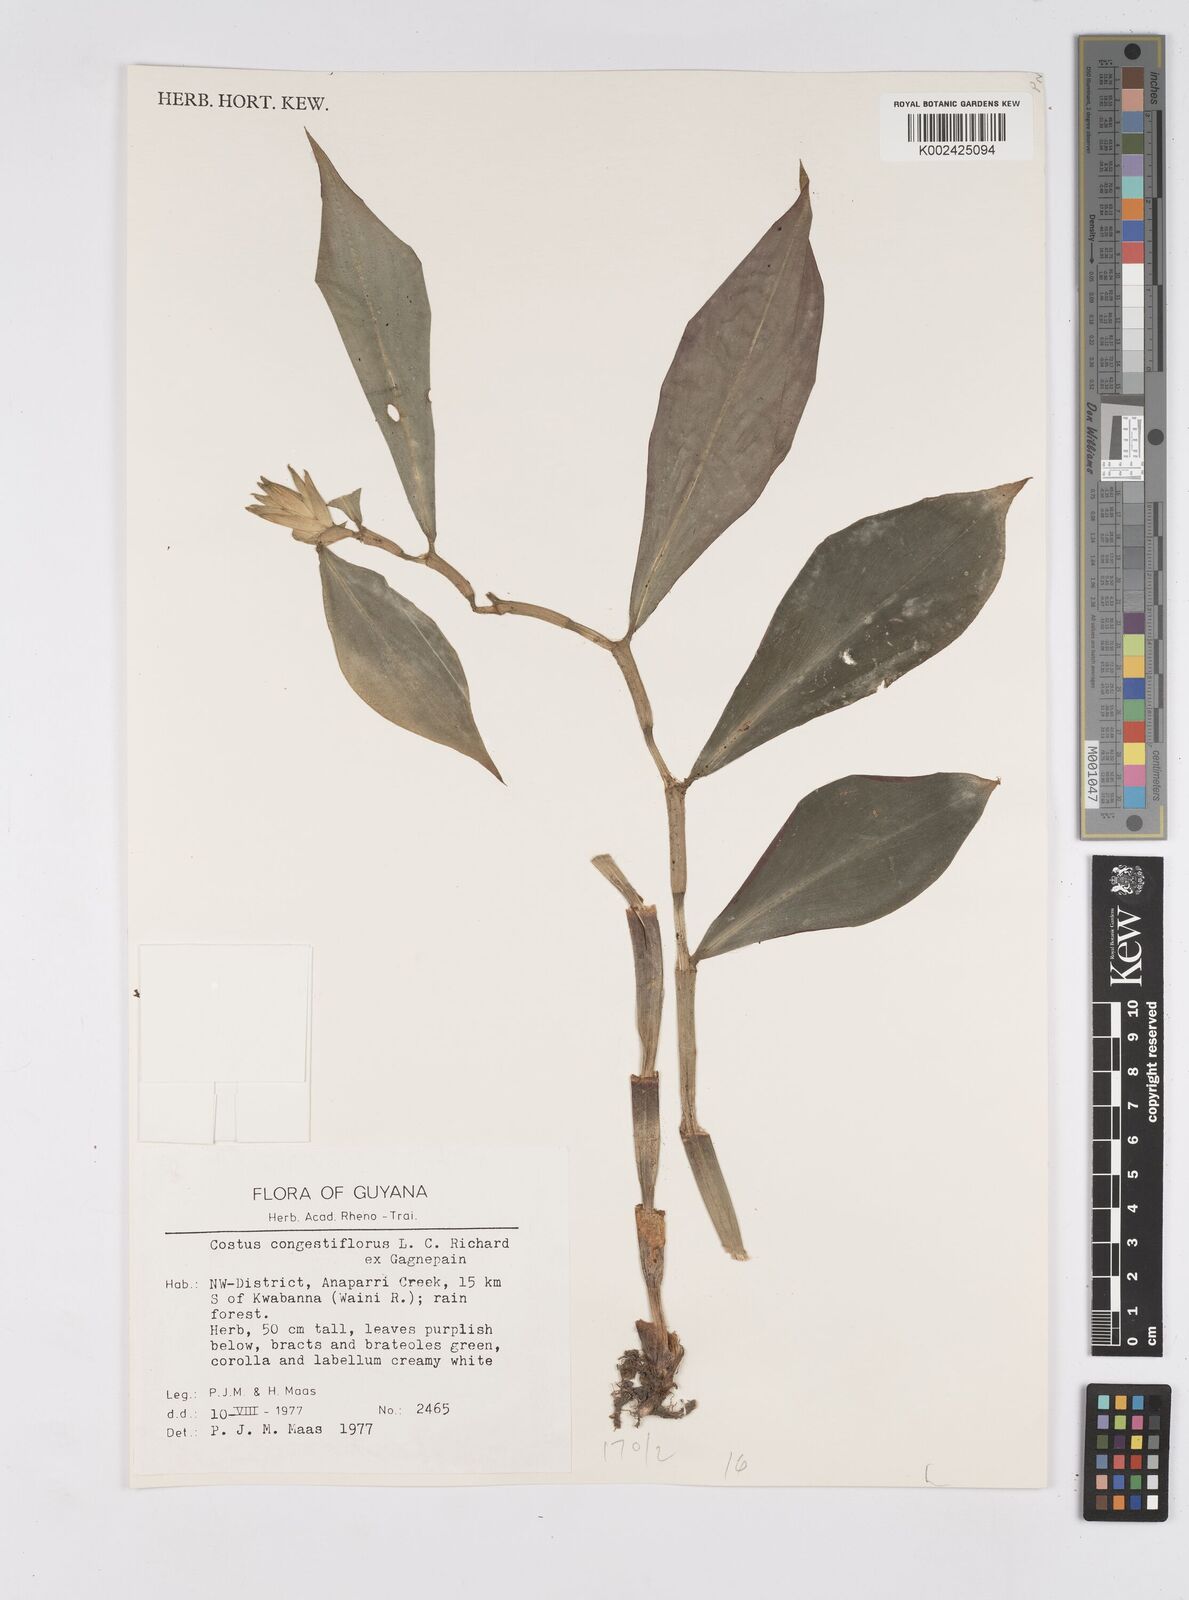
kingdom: Plantae
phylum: Tracheophyta
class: Liliopsida
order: Zingiberales
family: Costaceae
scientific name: Costaceae
